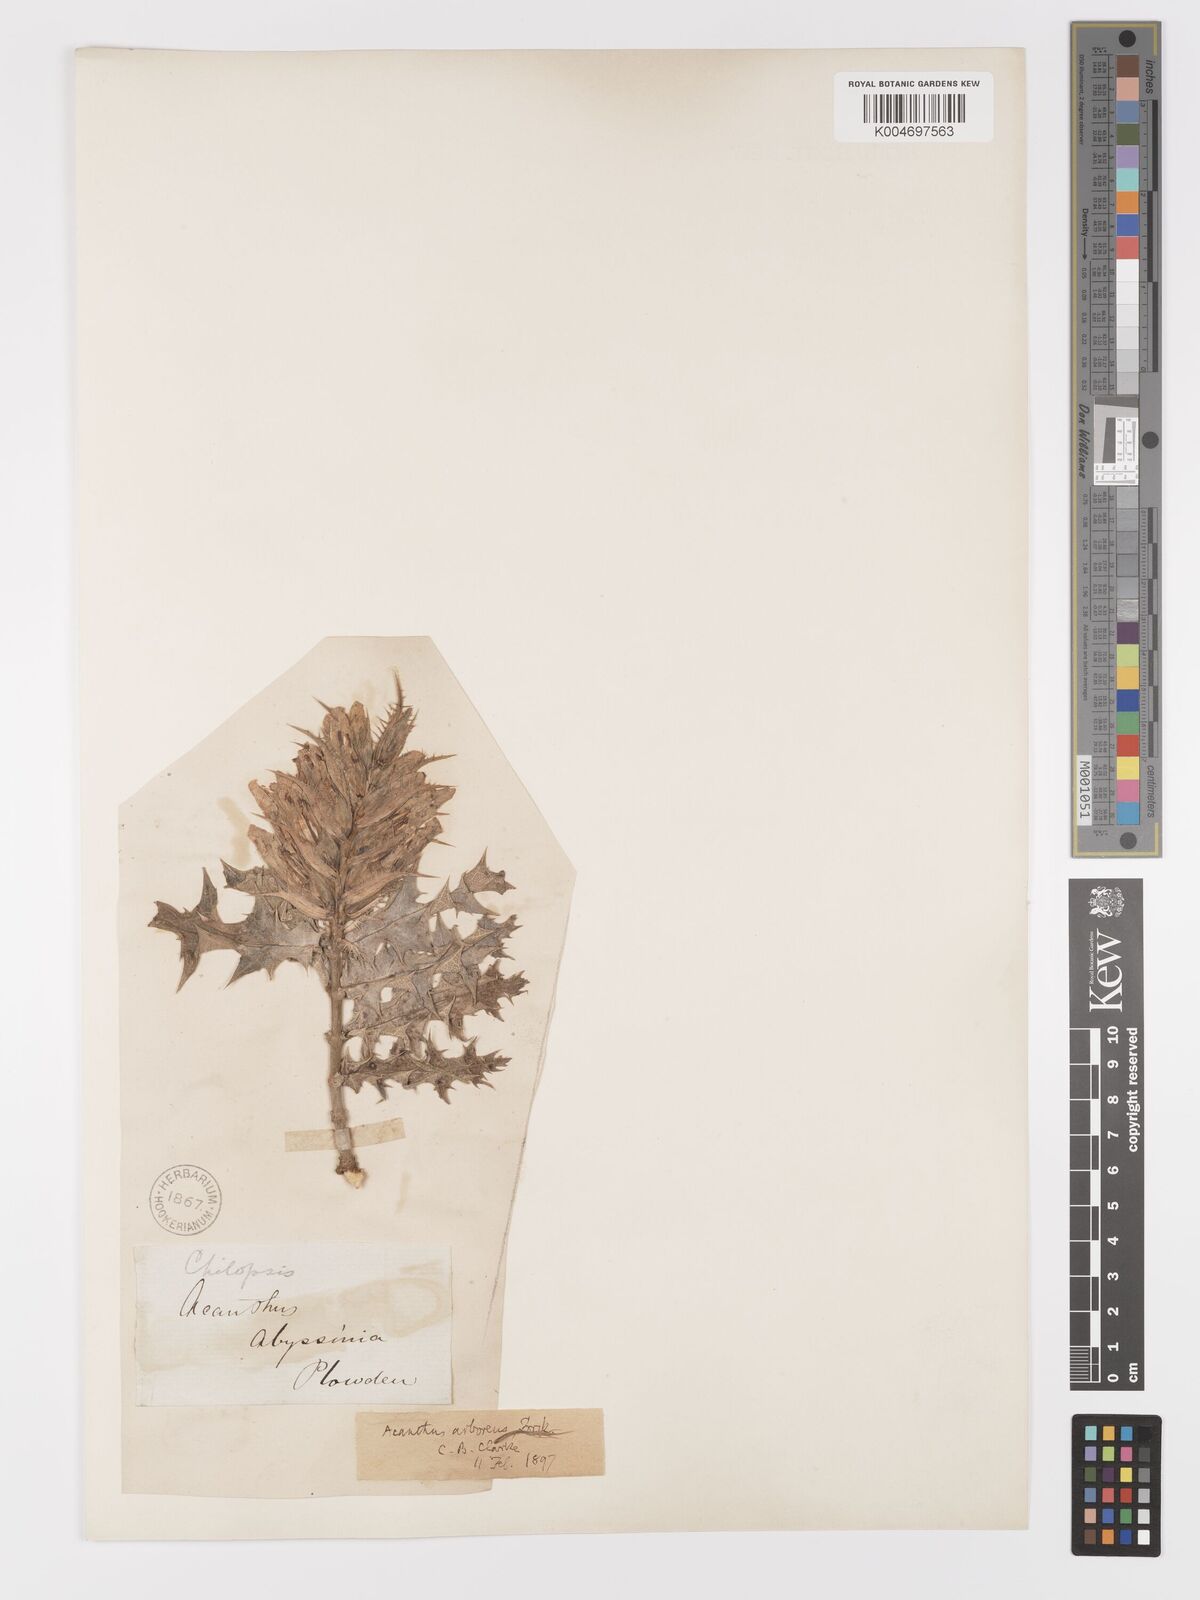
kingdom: Plantae
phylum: Tracheophyta
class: Magnoliopsida
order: Lamiales
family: Acanthaceae
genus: Acanthus
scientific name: Acanthus polystachyus
